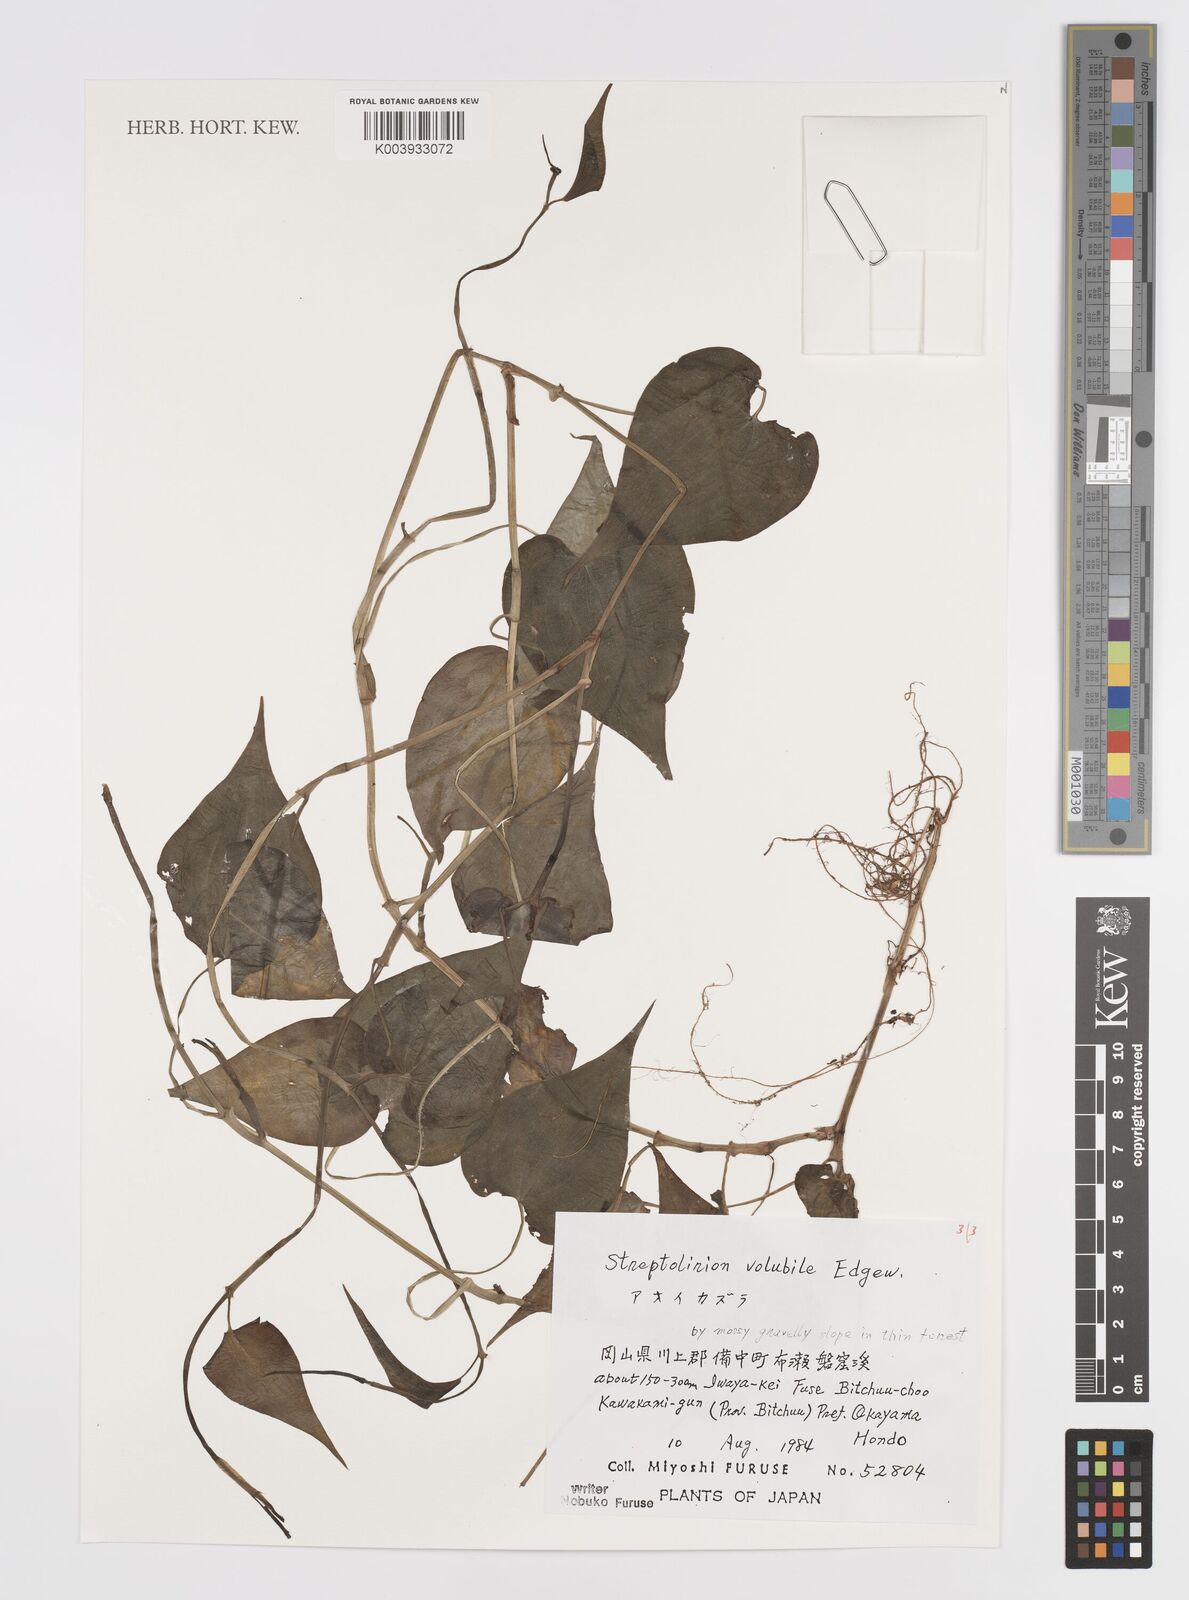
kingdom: Plantae
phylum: Tracheophyta
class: Liliopsida
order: Commelinales
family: Commelinaceae
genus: Streptolirion
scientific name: Streptolirion volubile
